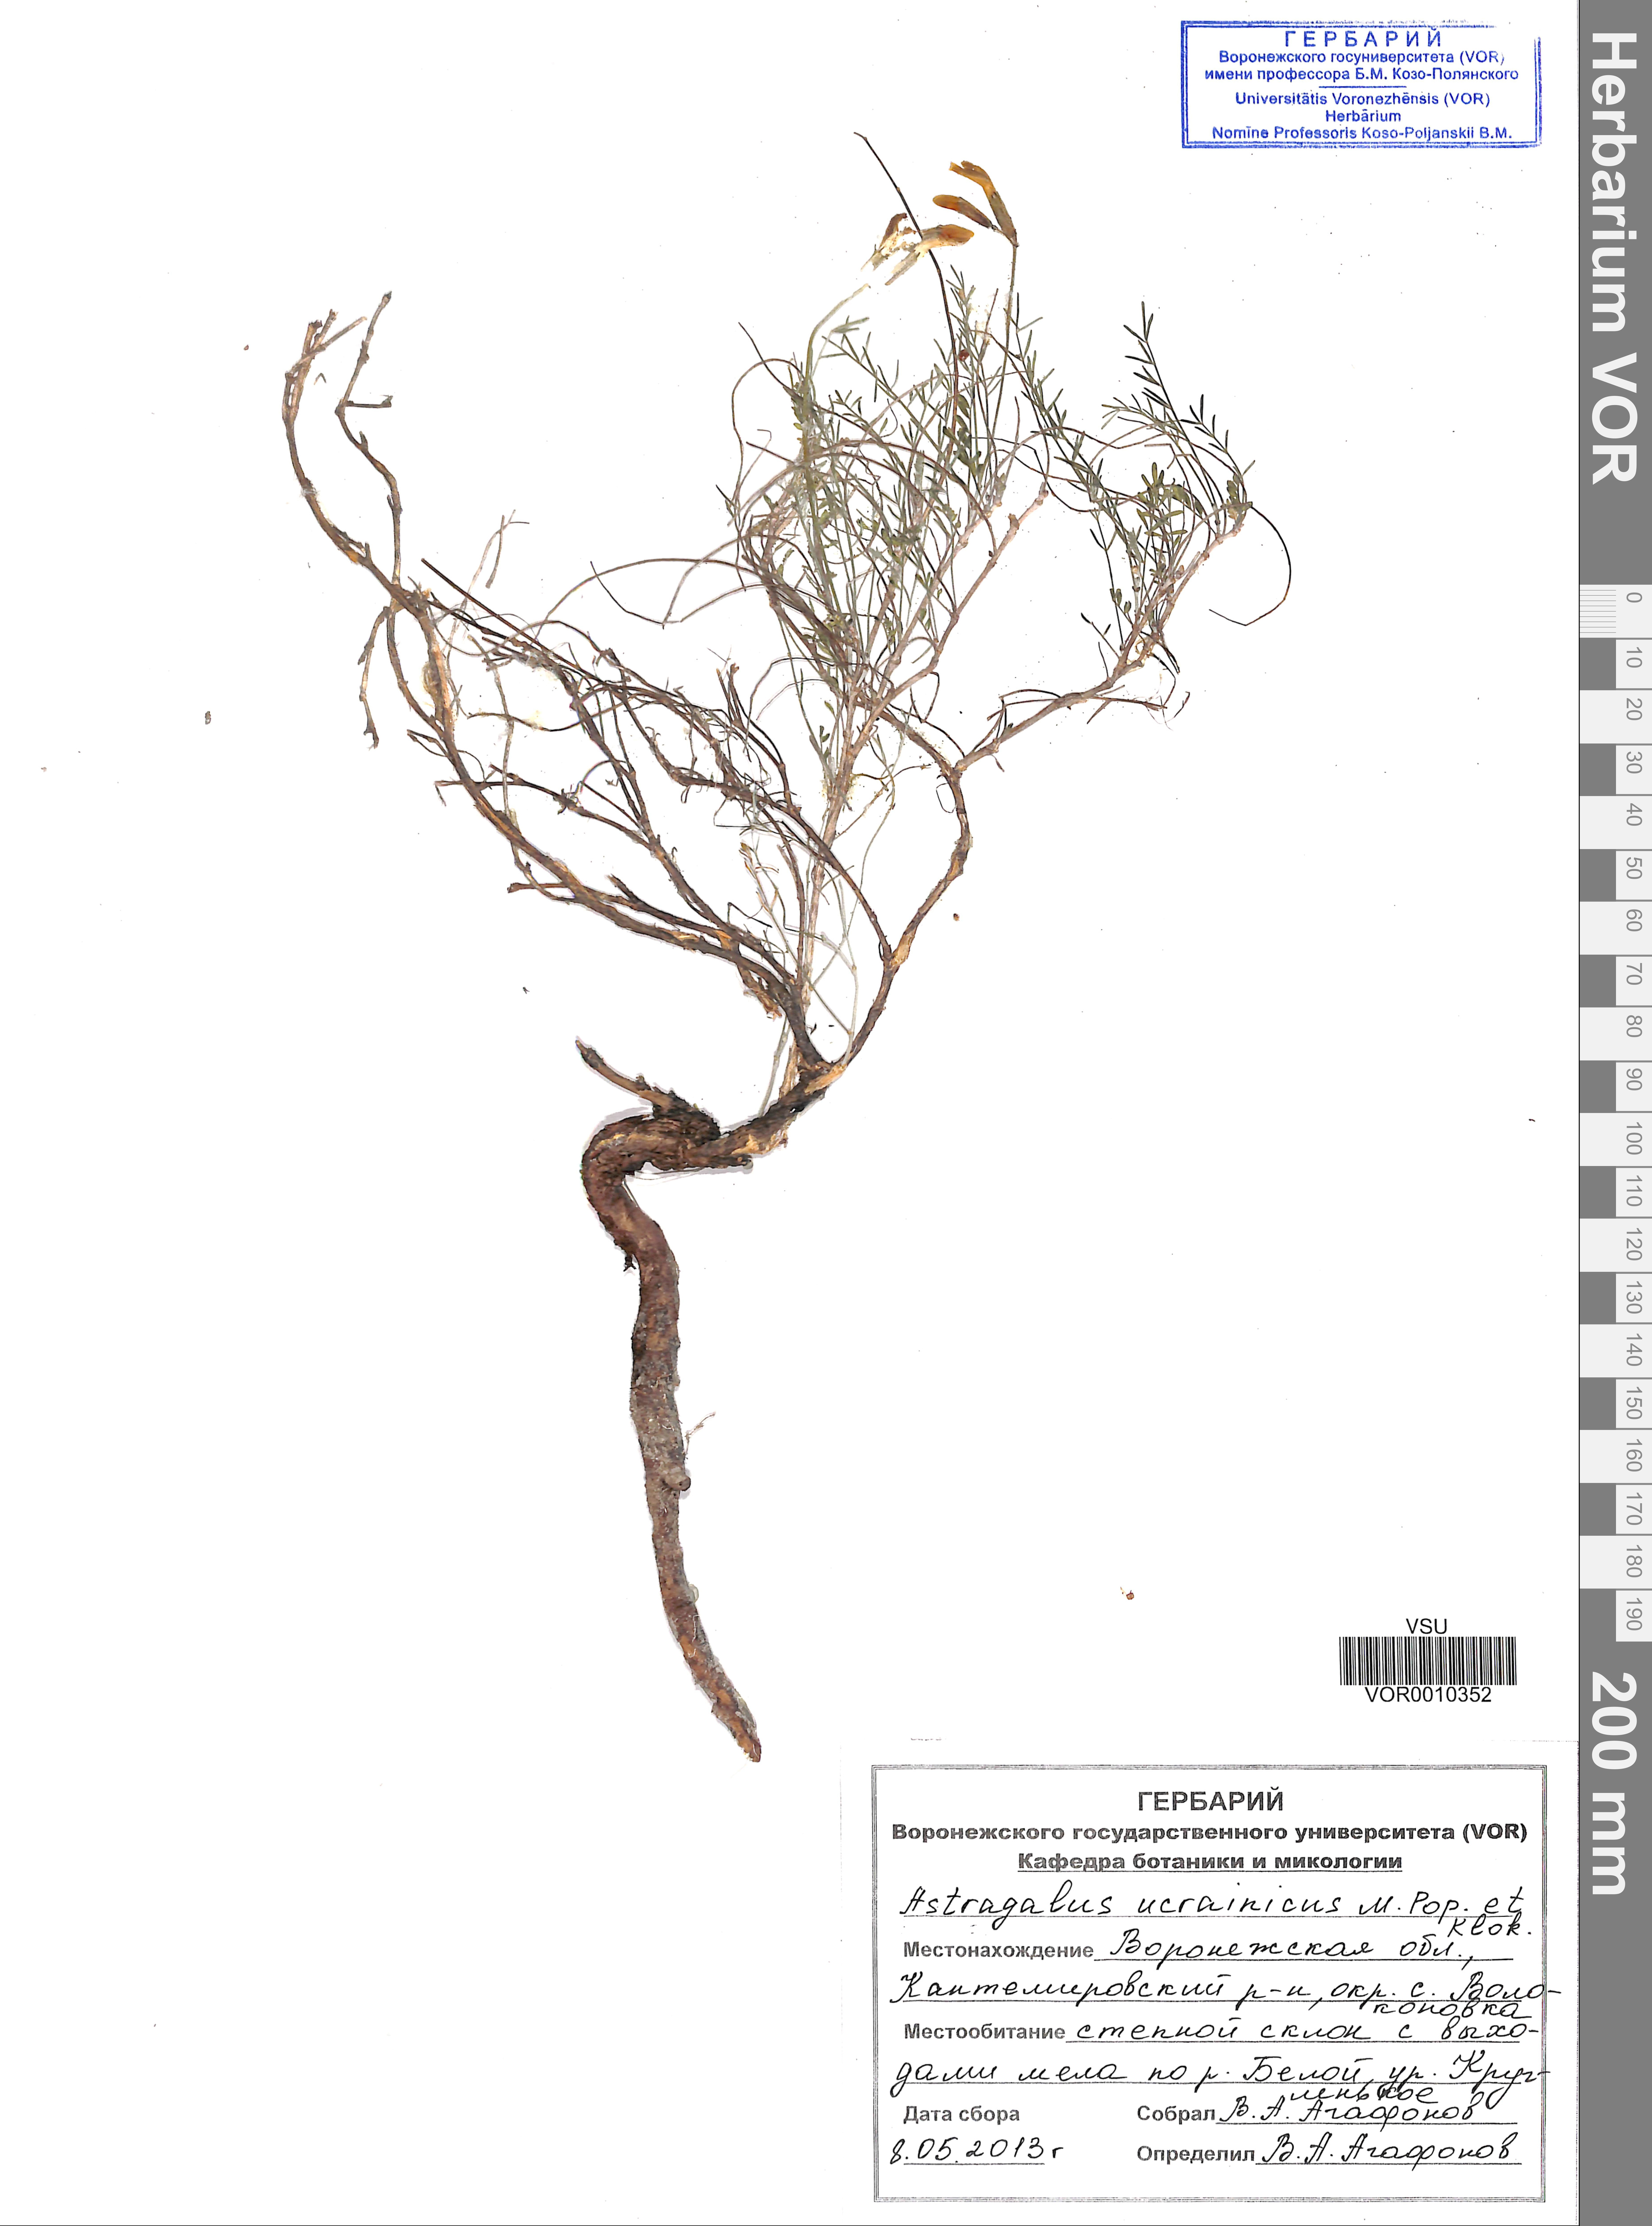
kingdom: Plantae
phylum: Tracheophyta
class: Magnoliopsida
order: Fabales
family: Fabaceae
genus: Astragalus
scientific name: Astragalus ucrainicus
